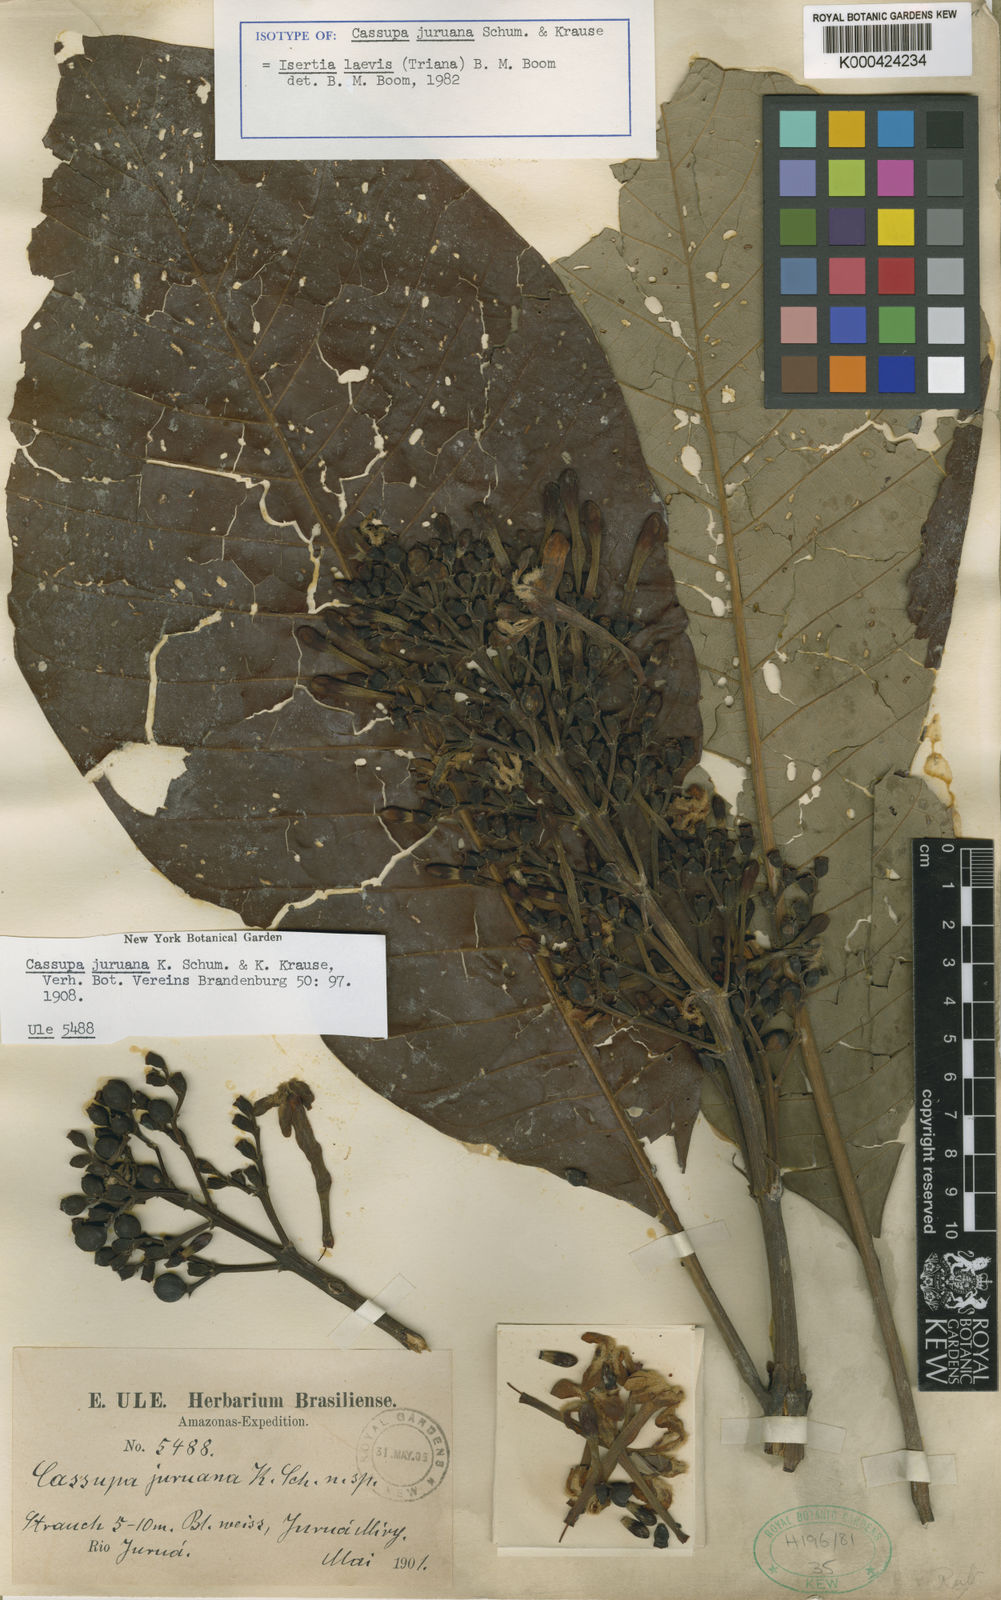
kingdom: Plantae
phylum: Tracheophyta
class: Magnoliopsida
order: Gentianales
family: Rubiaceae
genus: Isertia
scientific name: Isertia laevis
